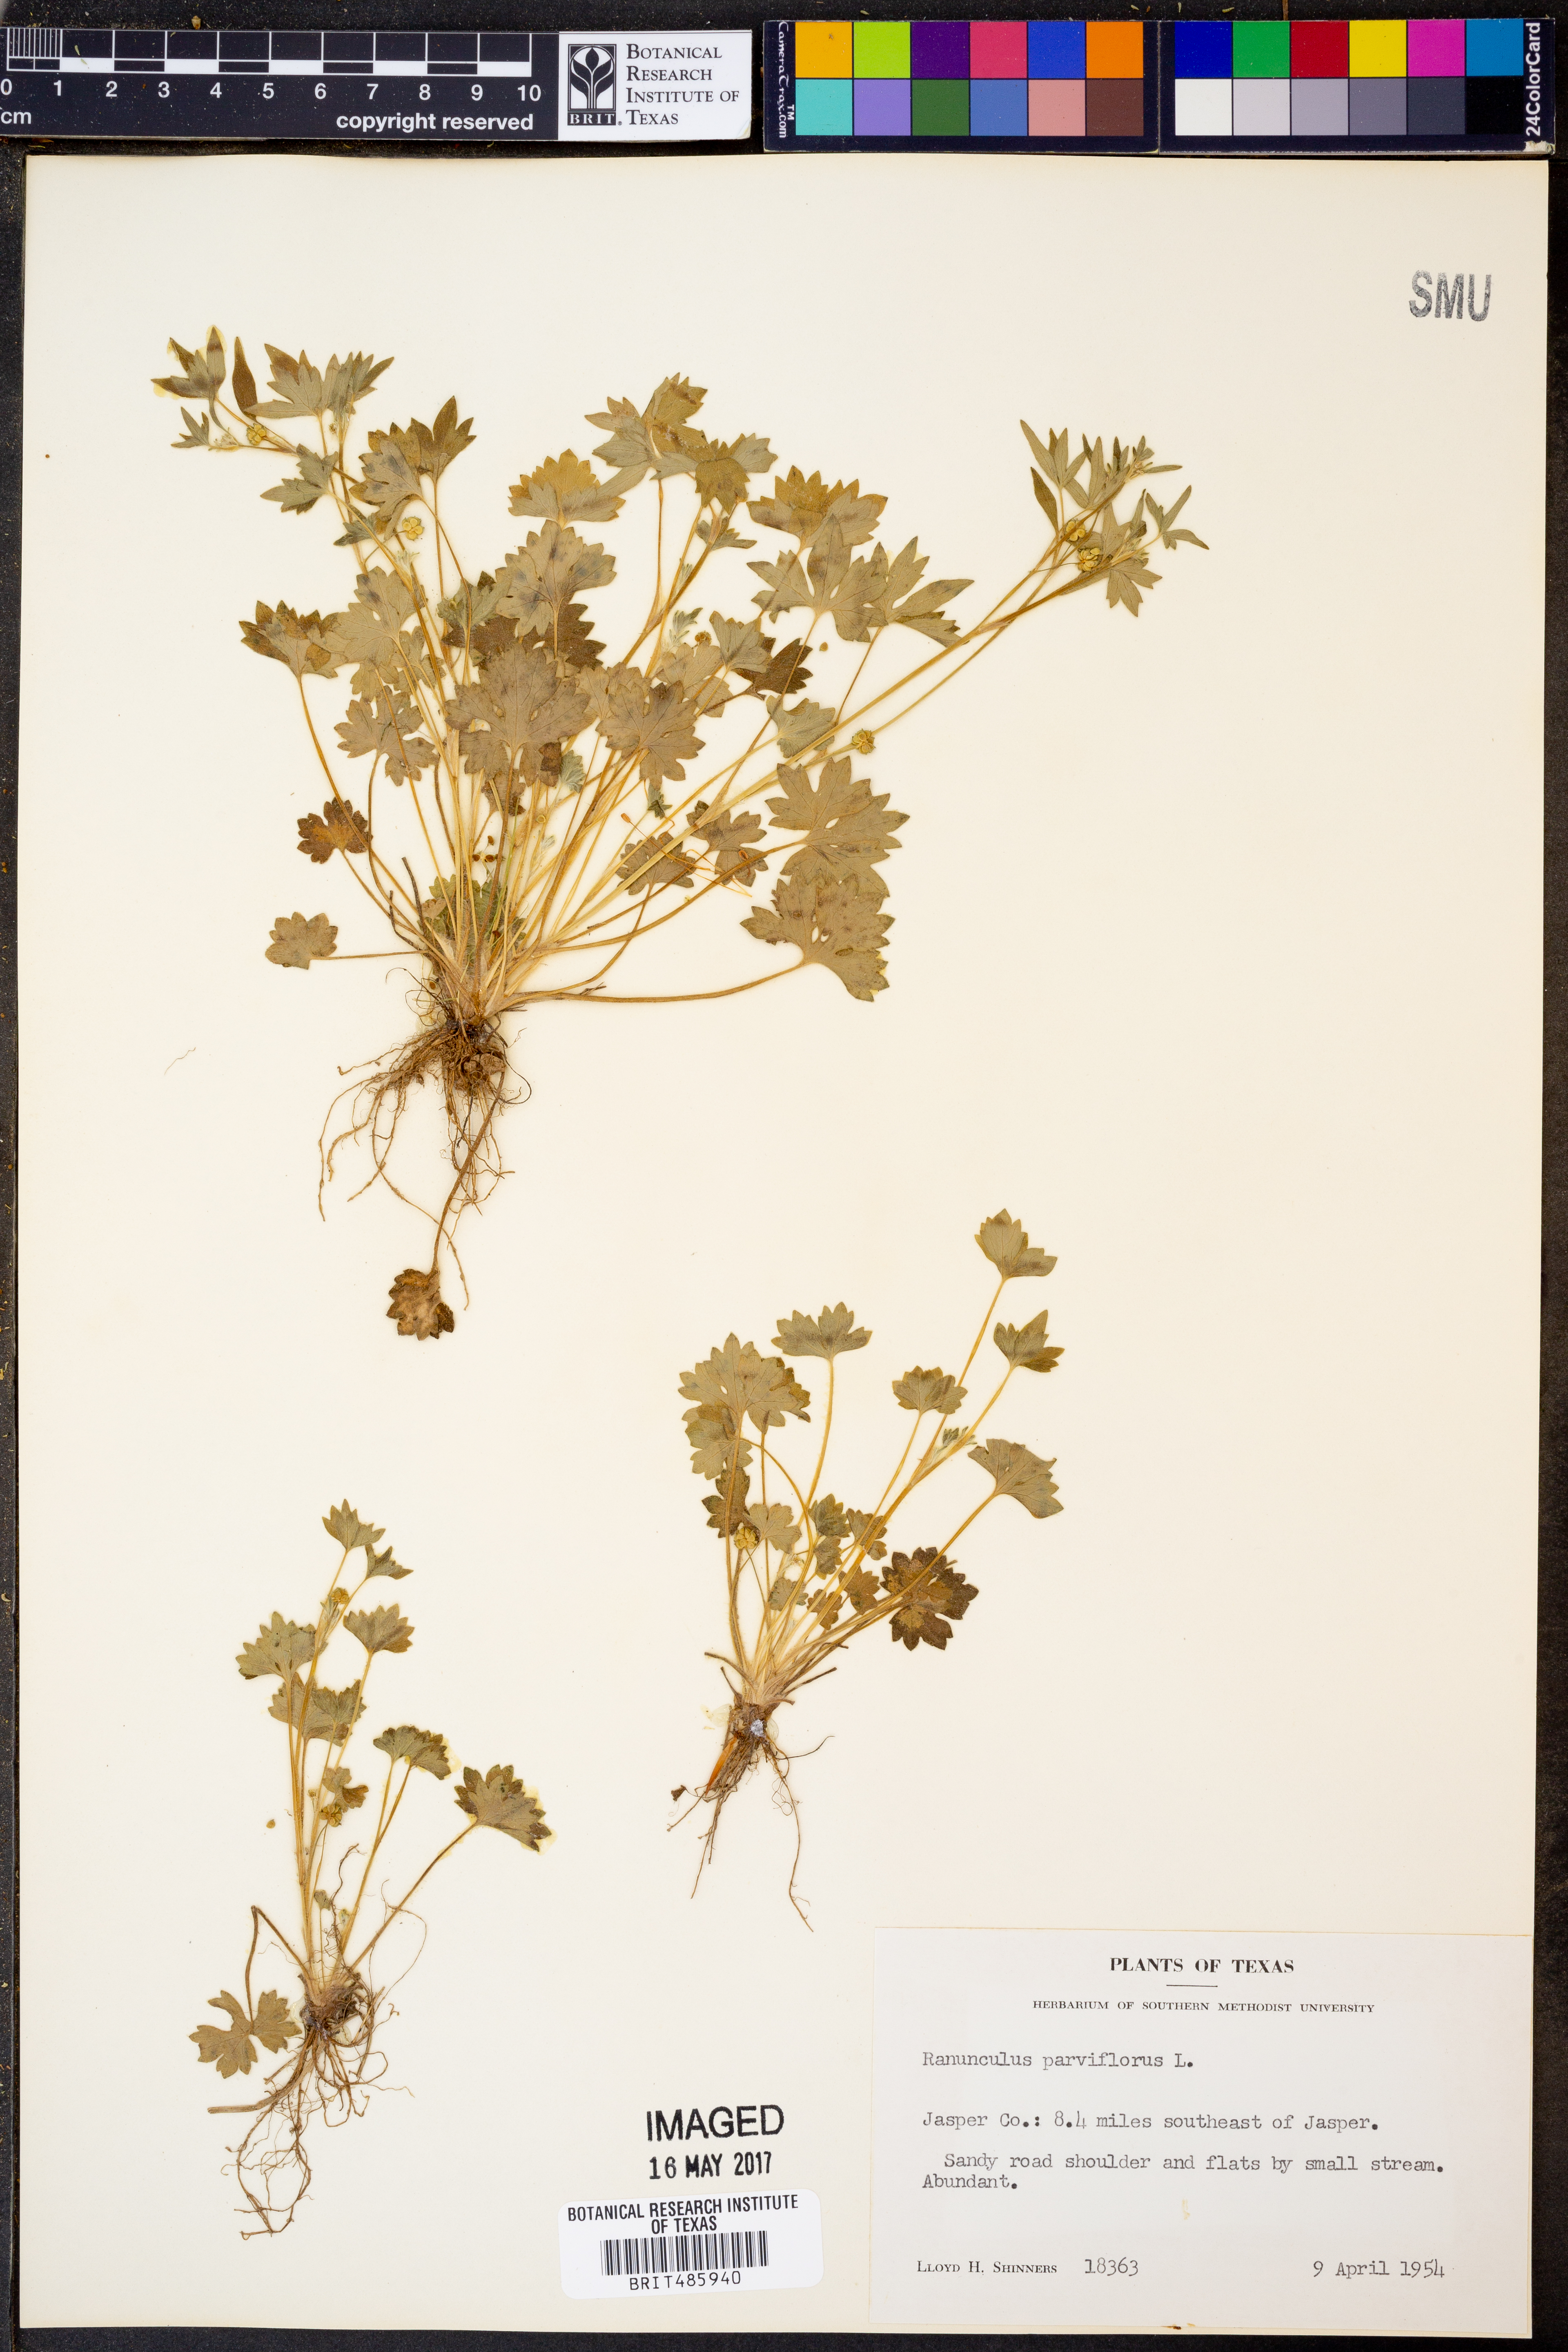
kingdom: Plantae
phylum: Tracheophyta
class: Magnoliopsida
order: Ranunculales
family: Ranunculaceae
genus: Ranunculus
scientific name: Ranunculus parviflorus
